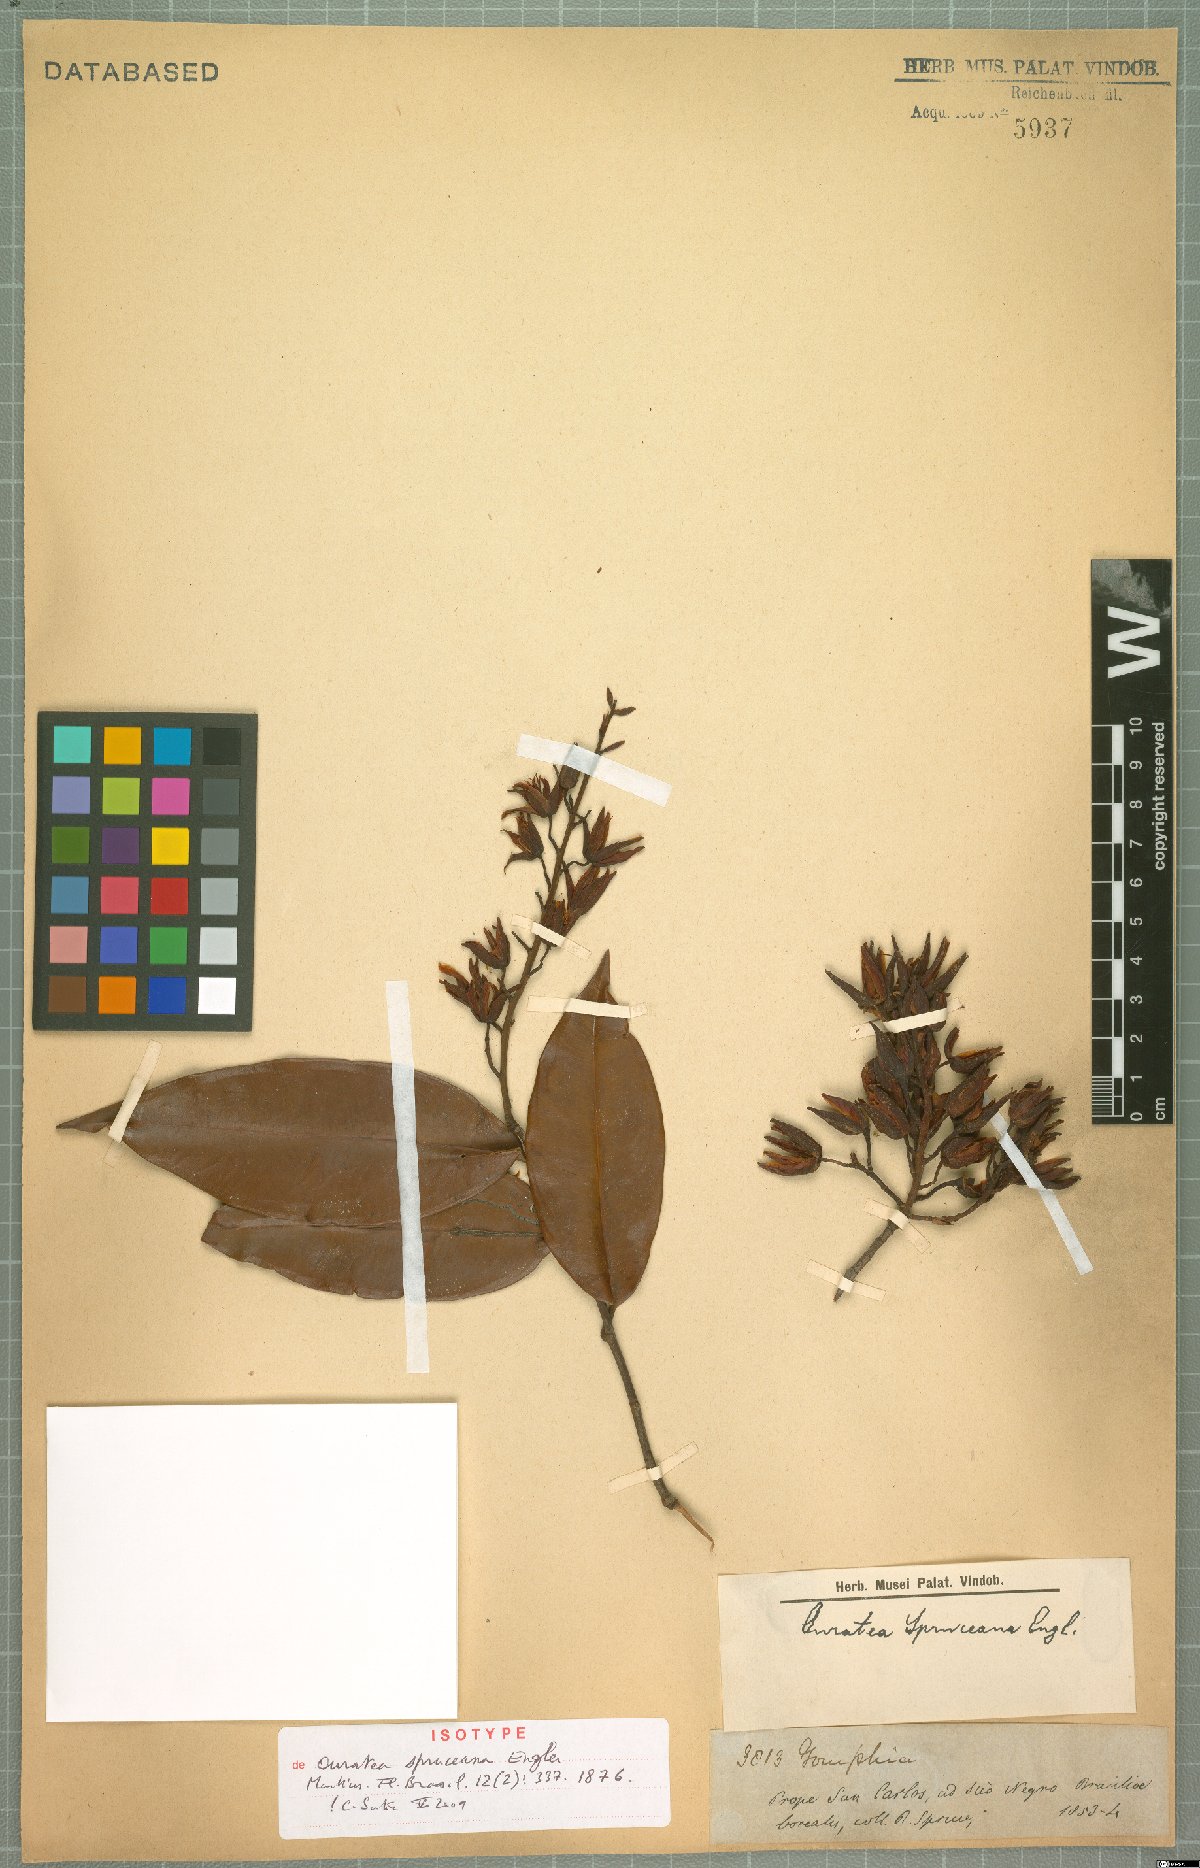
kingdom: Plantae
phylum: Tracheophyta
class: Magnoliopsida
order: Malpighiales
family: Ochnaceae
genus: Ouratea
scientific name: Ouratea spruceana
